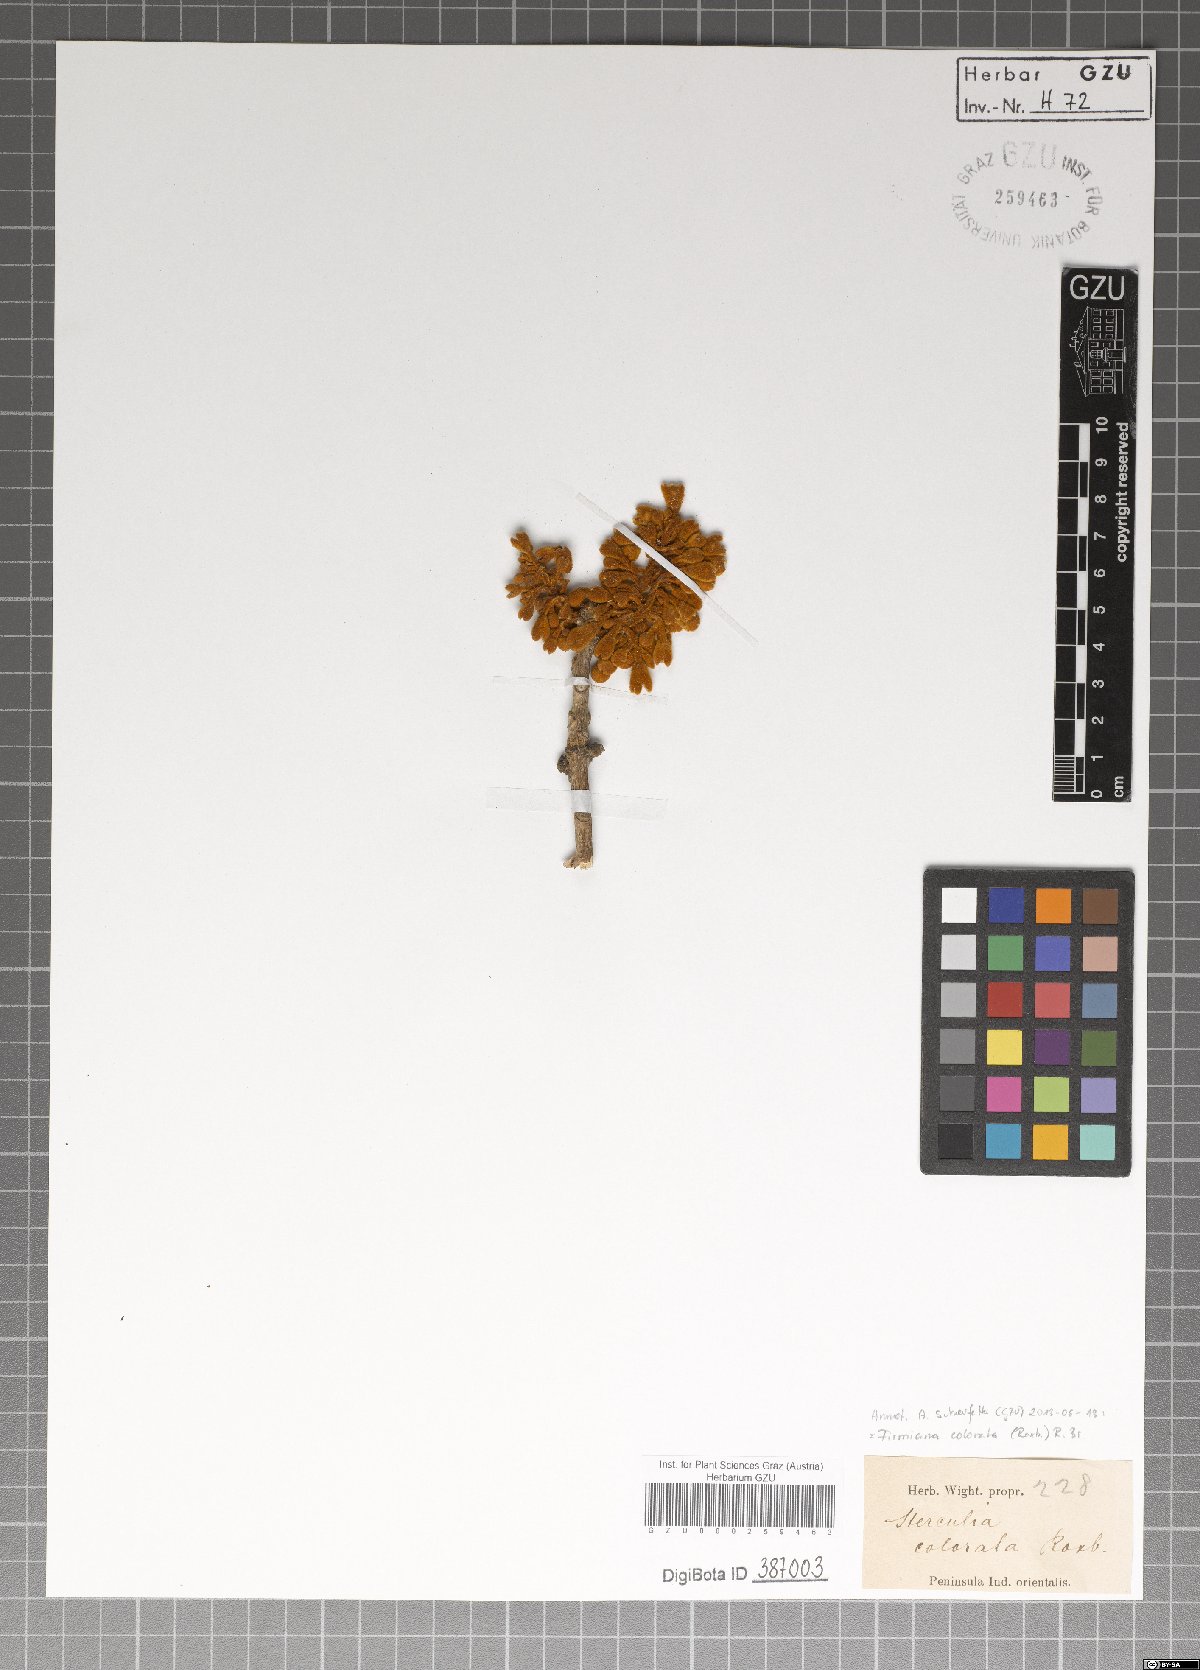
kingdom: Plantae
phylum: Tracheophyta
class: Magnoliopsida
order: Malvales
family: Malvaceae
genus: Firmiana
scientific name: Firmiana colorata
